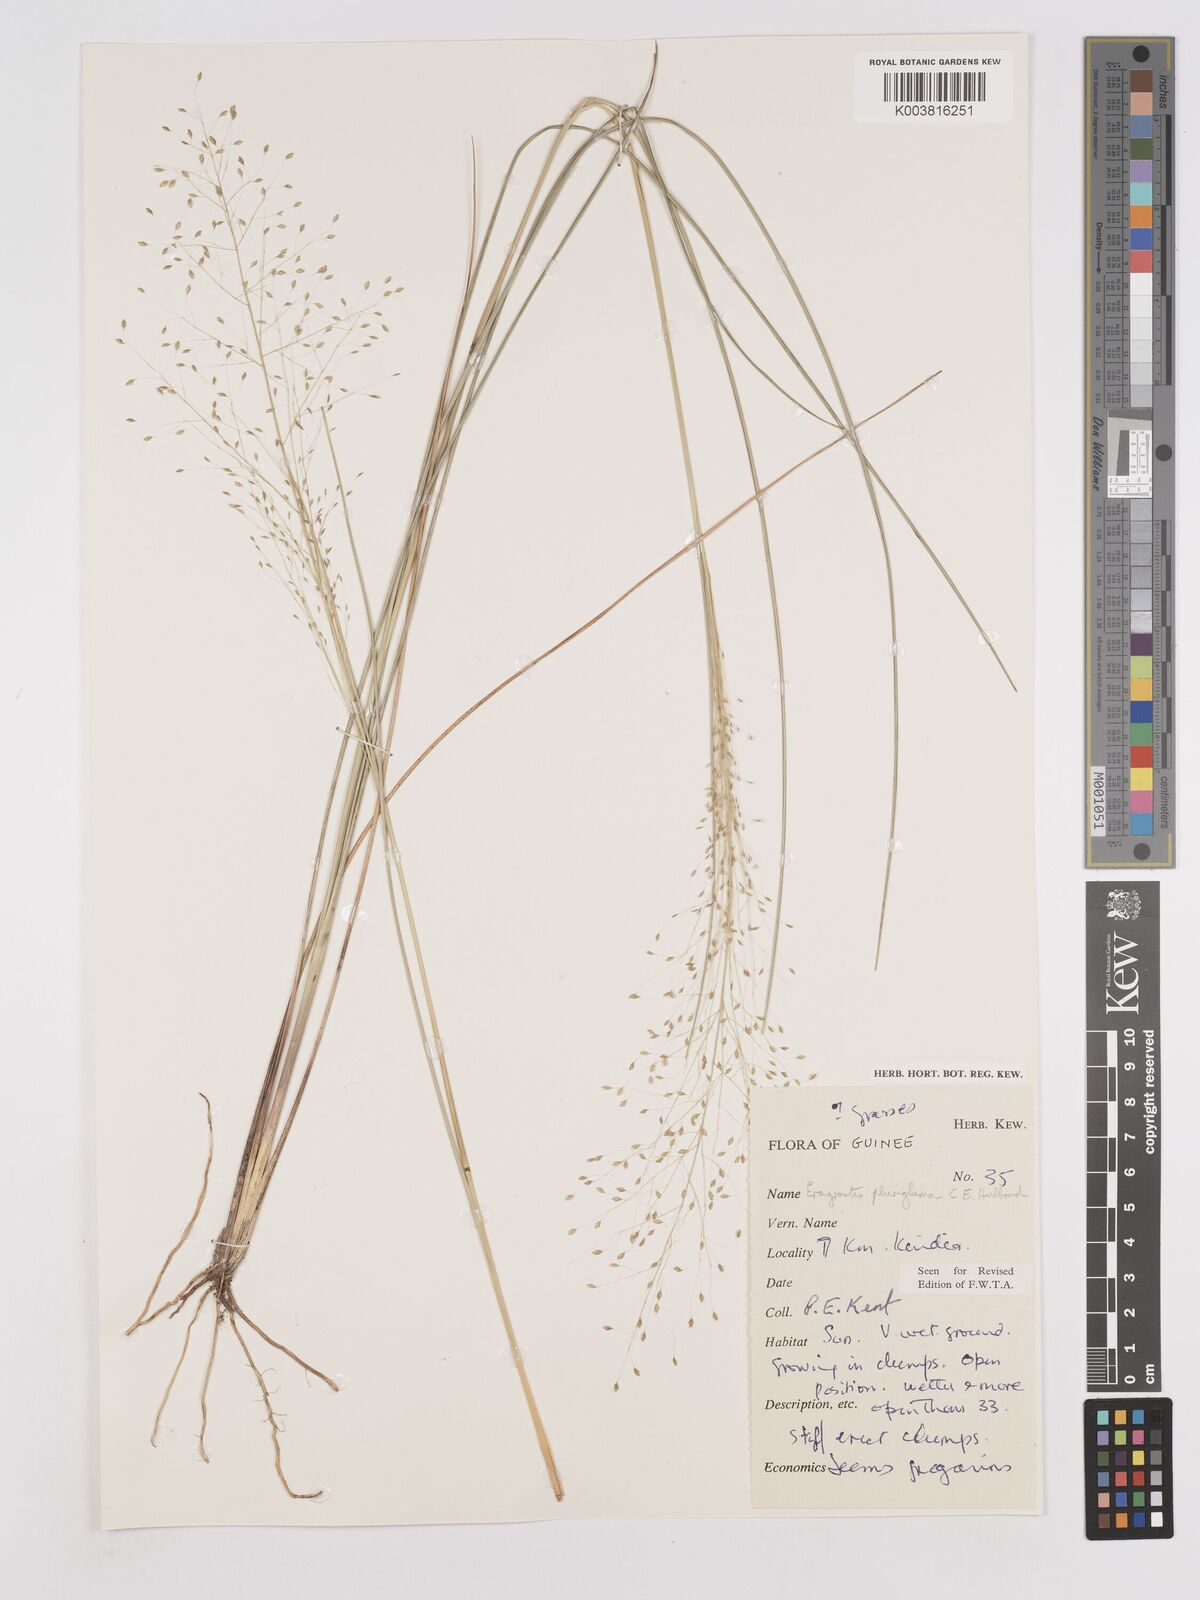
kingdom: Plantae
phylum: Tracheophyta
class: Liliopsida
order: Poales
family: Poaceae
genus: Eragrostis
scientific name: Eragrostis plurigluma
